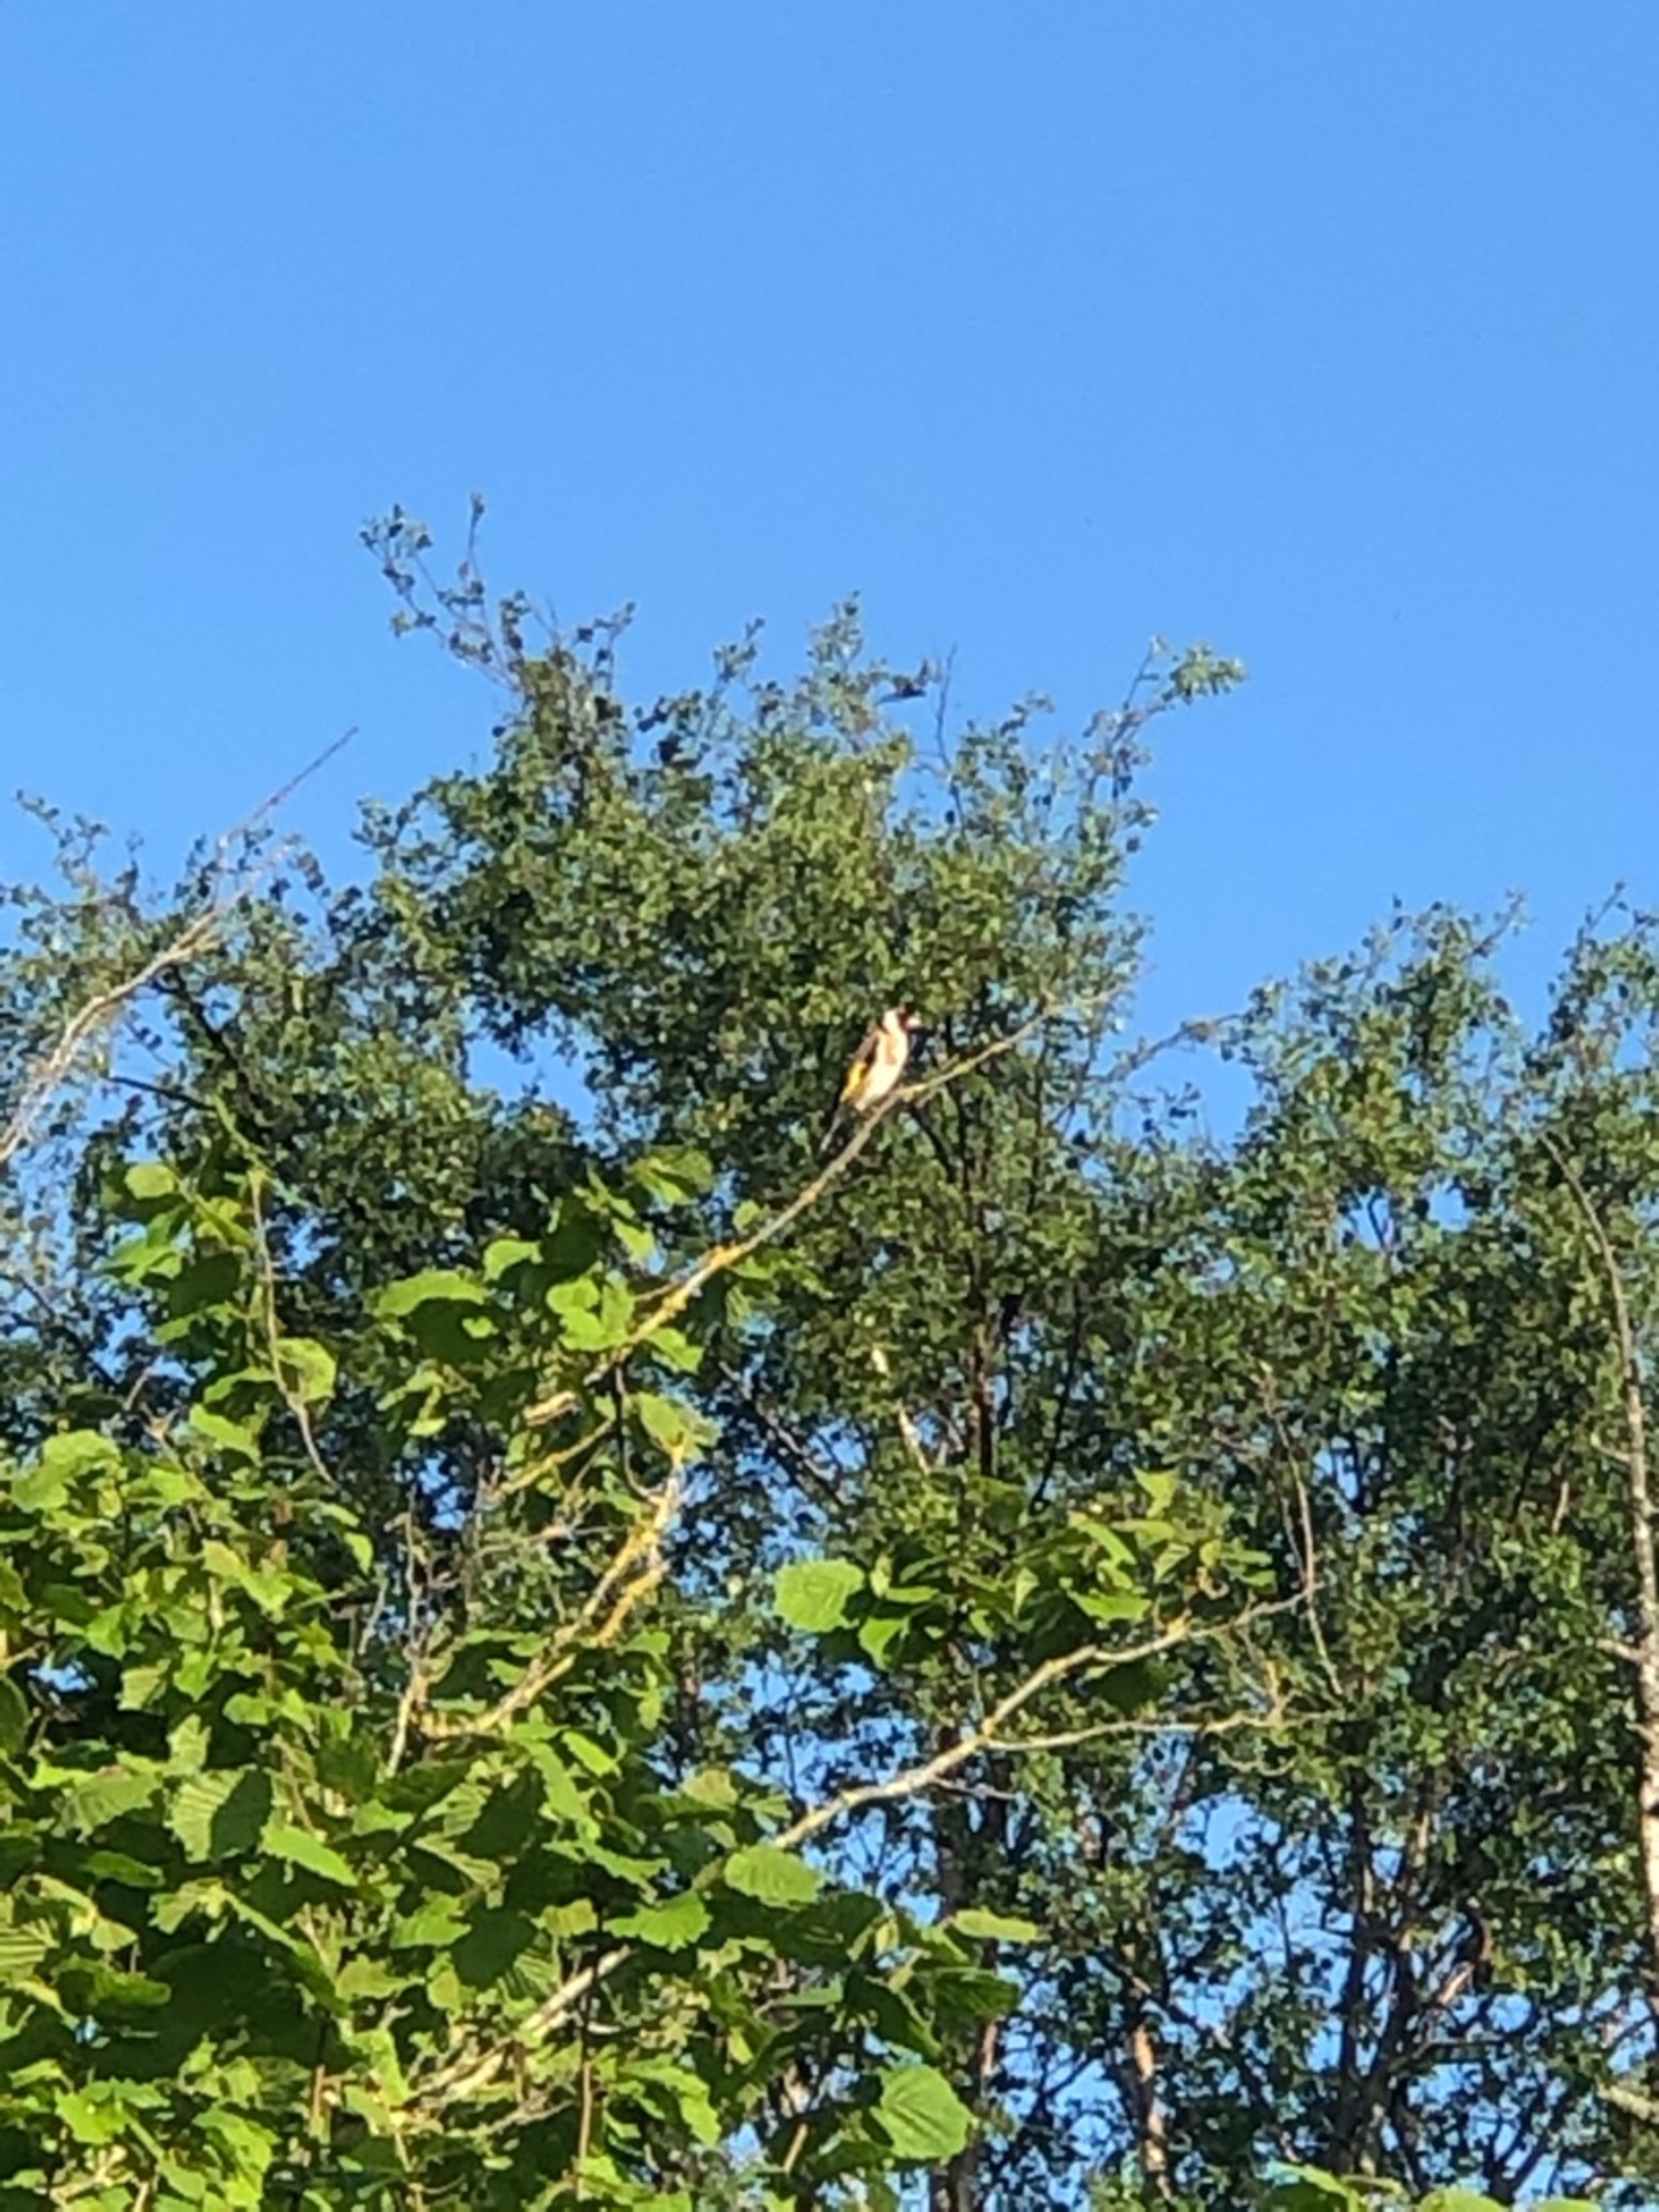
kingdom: Animalia
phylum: Chordata
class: Aves
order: Passeriformes
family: Fringillidae
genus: Carduelis
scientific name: Carduelis carduelis
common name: Stillits
